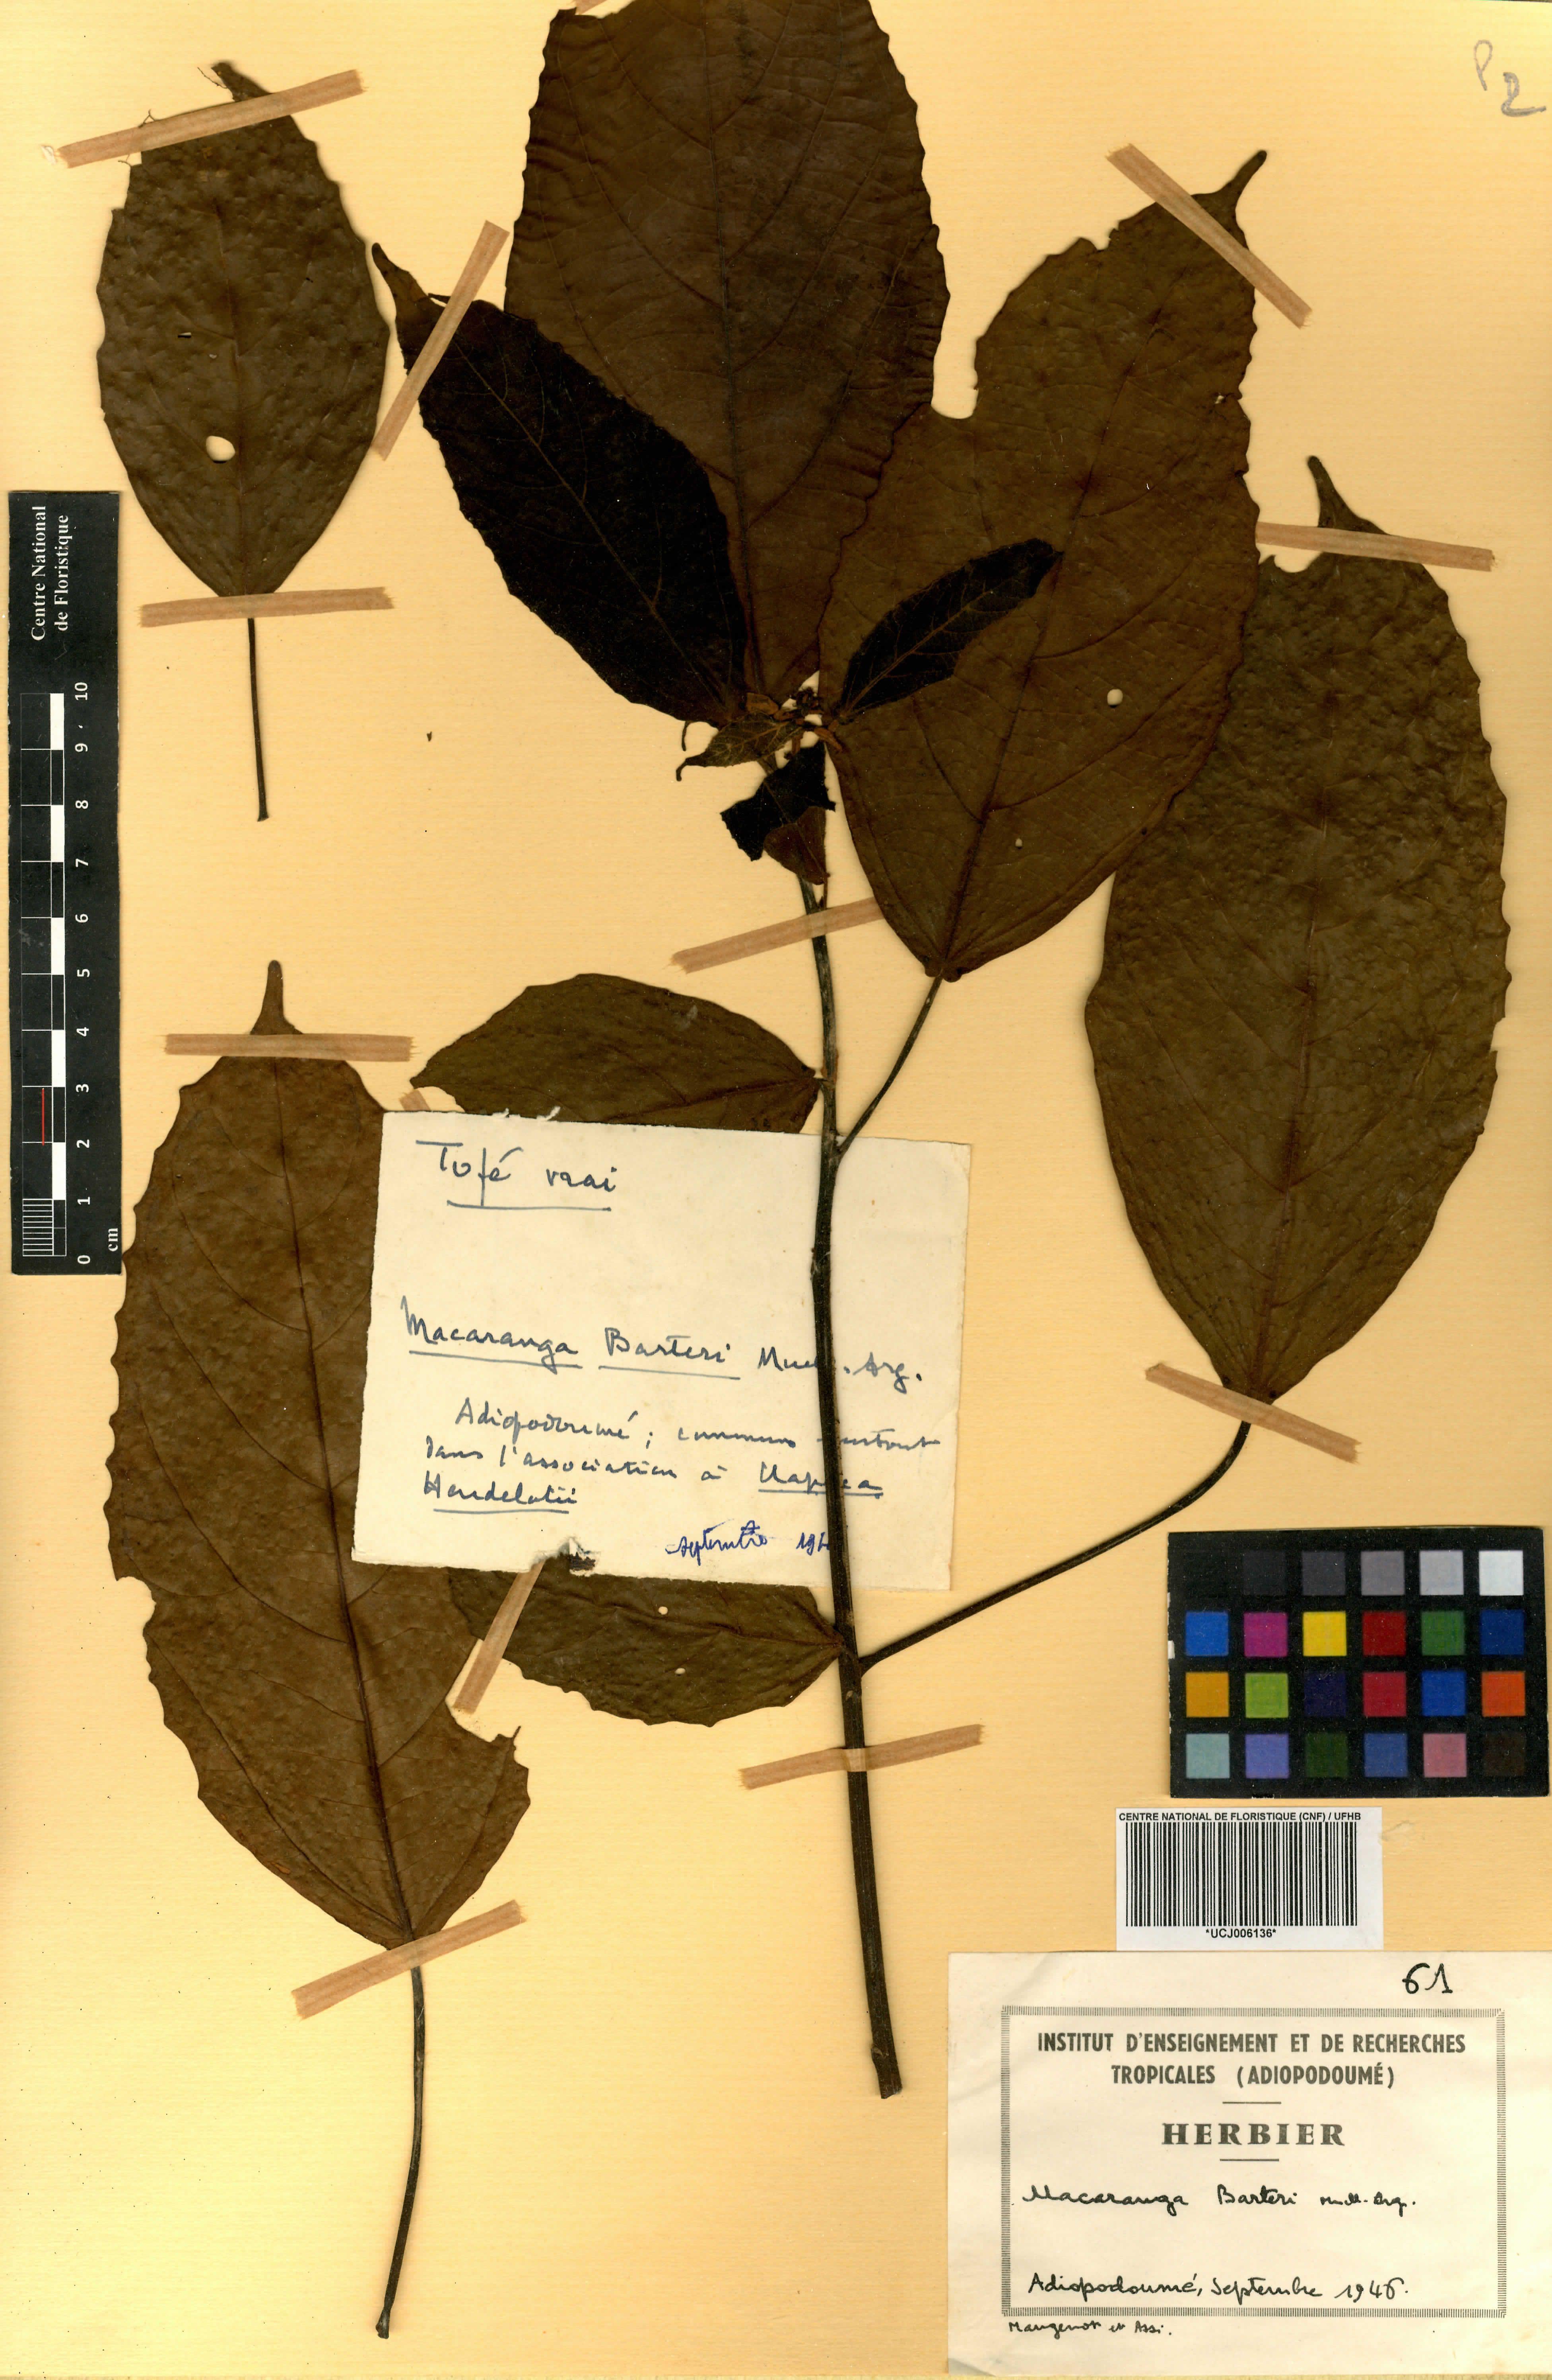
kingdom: Plantae
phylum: Tracheophyta
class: Magnoliopsida
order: Malpighiales
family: Euphorbiaceae
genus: Macaranga
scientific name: Macaranga barteri
